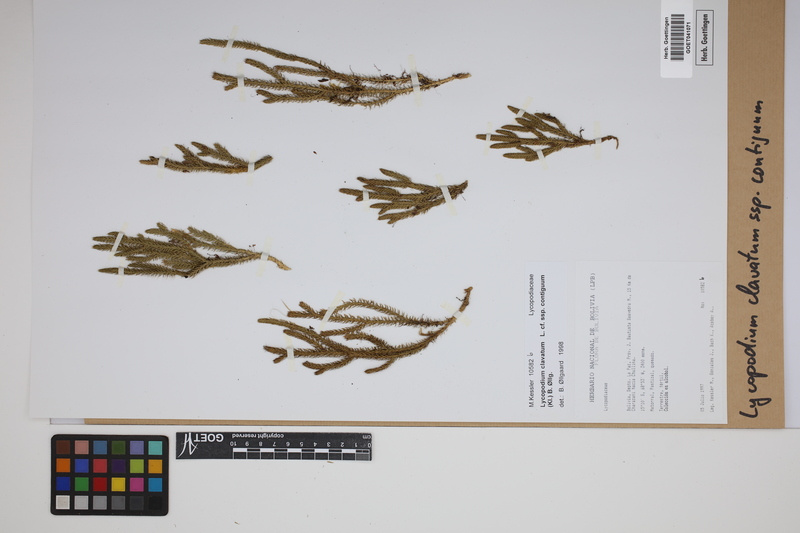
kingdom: Plantae
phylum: Tracheophyta
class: Lycopodiopsida
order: Lycopodiales
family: Lycopodiaceae
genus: Lycopodium
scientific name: Lycopodium clavatum
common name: Stag's-horn clubmoss
